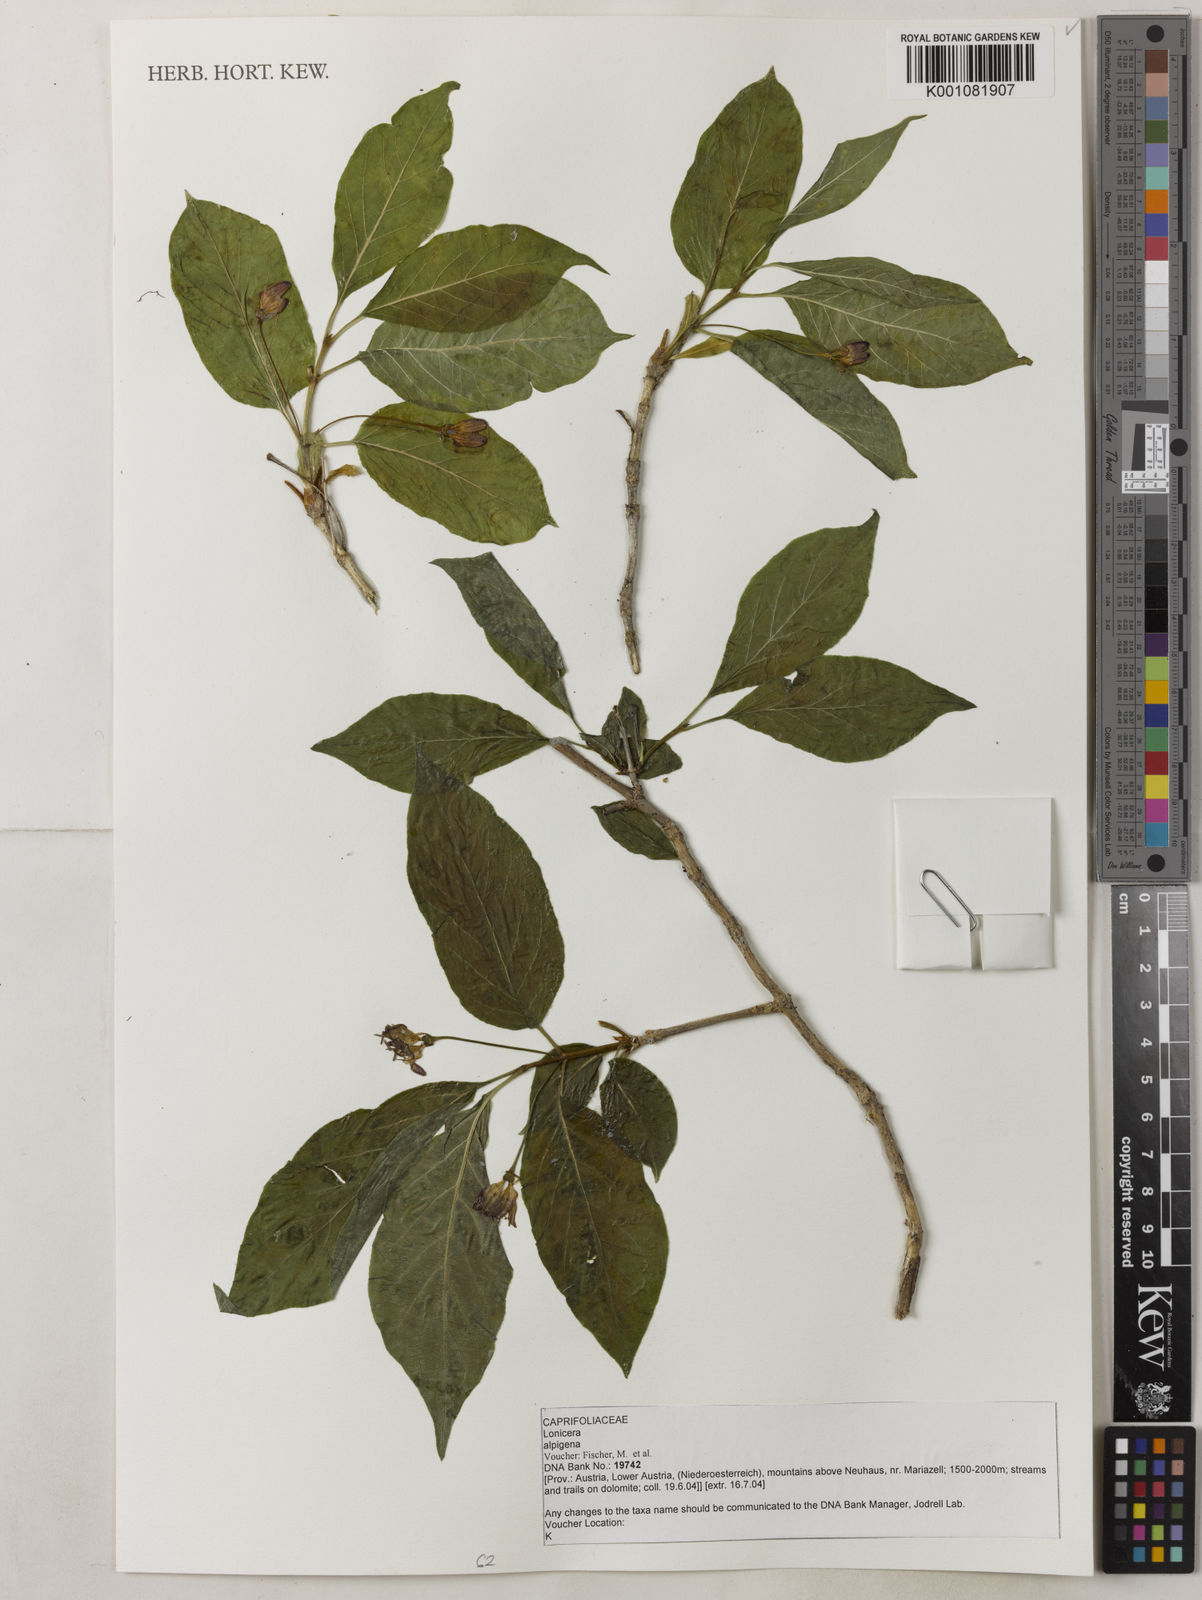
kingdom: Plantae
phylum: Tracheophyta
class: Magnoliopsida
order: Dipsacales
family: Caprifoliaceae
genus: Lonicera
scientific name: Lonicera alpigena
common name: Alpine honeysuckle
